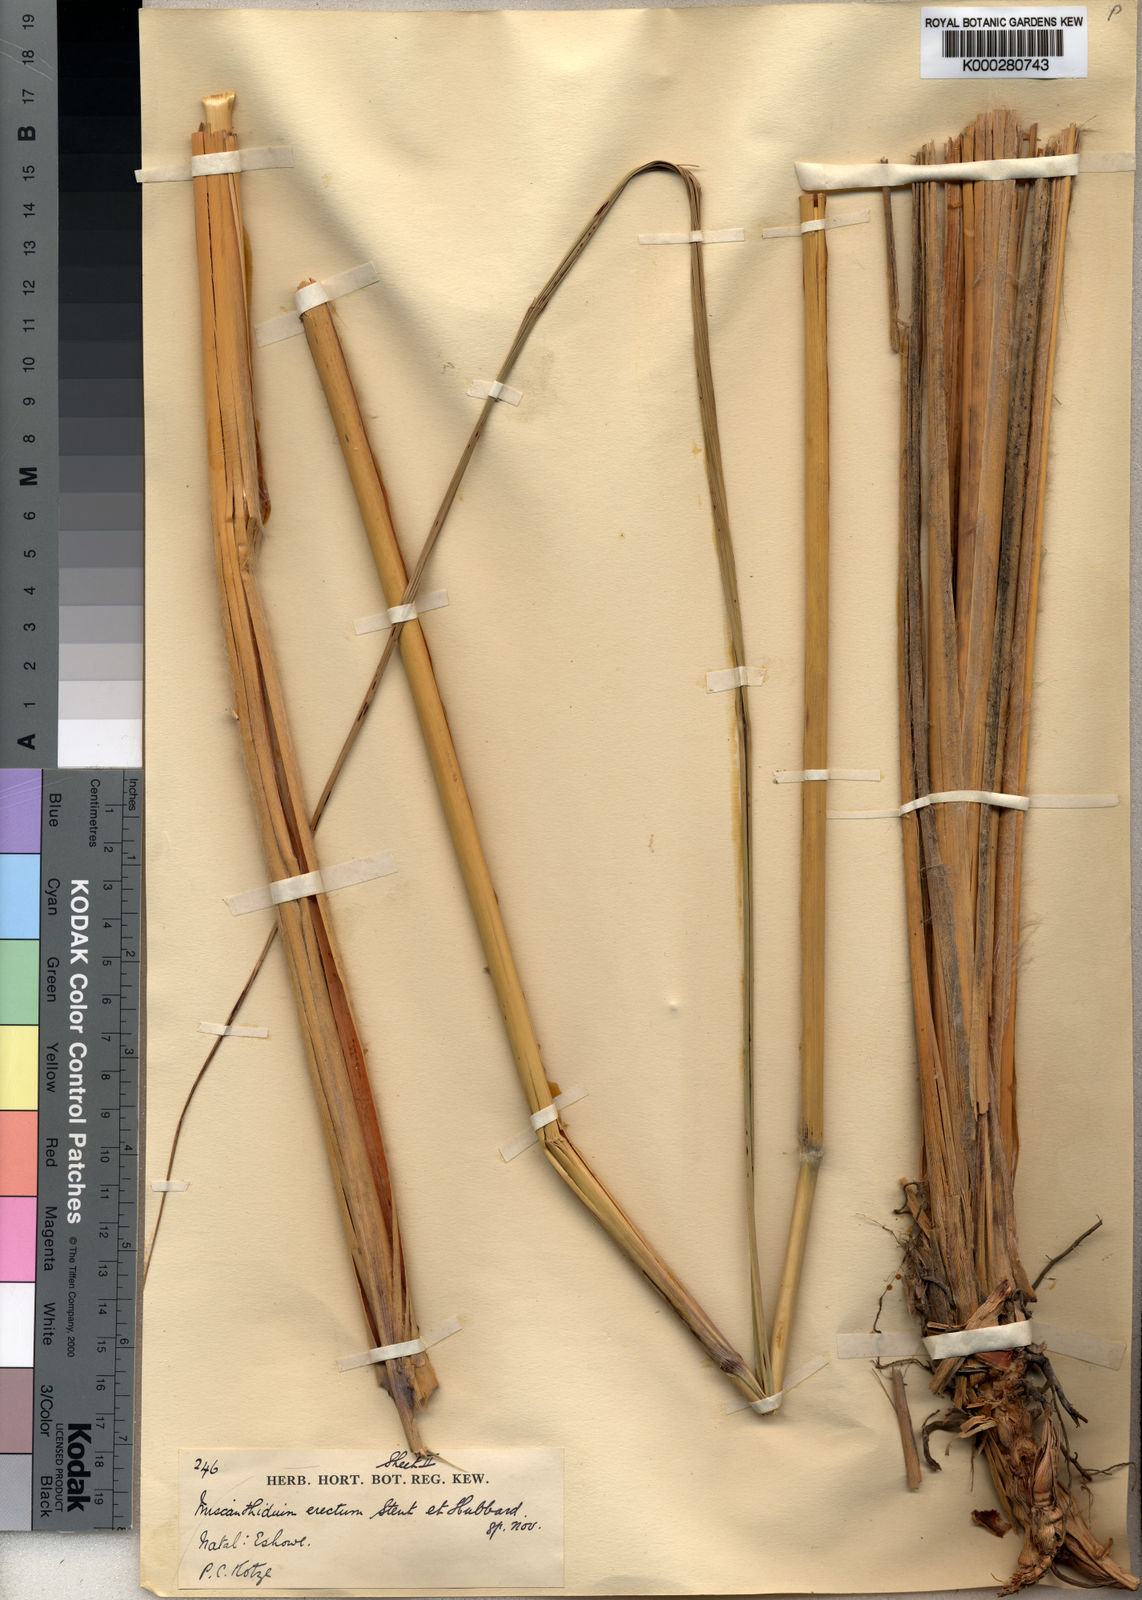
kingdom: Plantae
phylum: Tracheophyta
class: Liliopsida
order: Poales
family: Poaceae
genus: Miscanthus
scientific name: Miscanthus ecklonii
